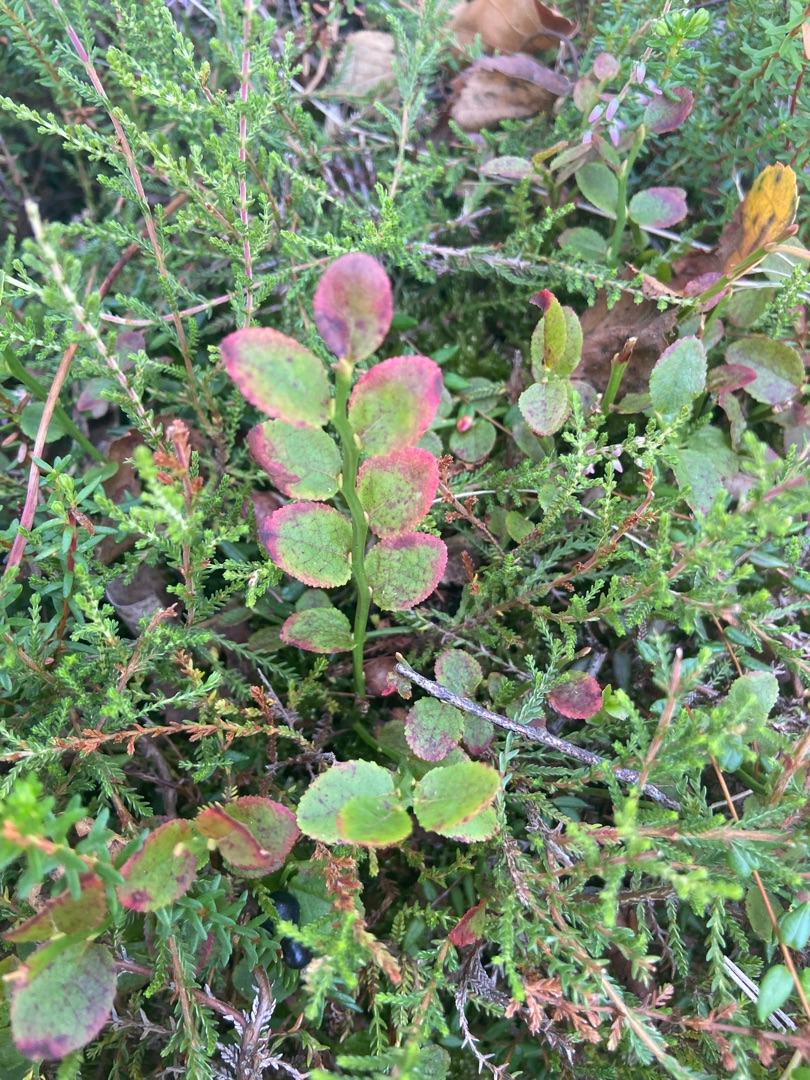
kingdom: Plantae
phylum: Tracheophyta
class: Magnoliopsida
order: Ericales
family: Ericaceae
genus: Vaccinium
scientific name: Vaccinium myrtillus
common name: Blåbær
